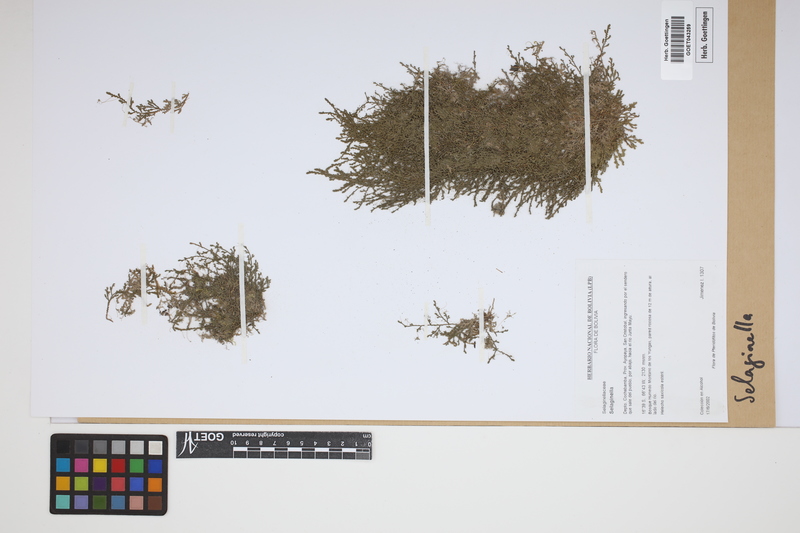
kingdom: Plantae
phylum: Tracheophyta
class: Lycopodiopsida
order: Selaginellales
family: Selaginellaceae
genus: Selaginella
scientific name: Selaginella
